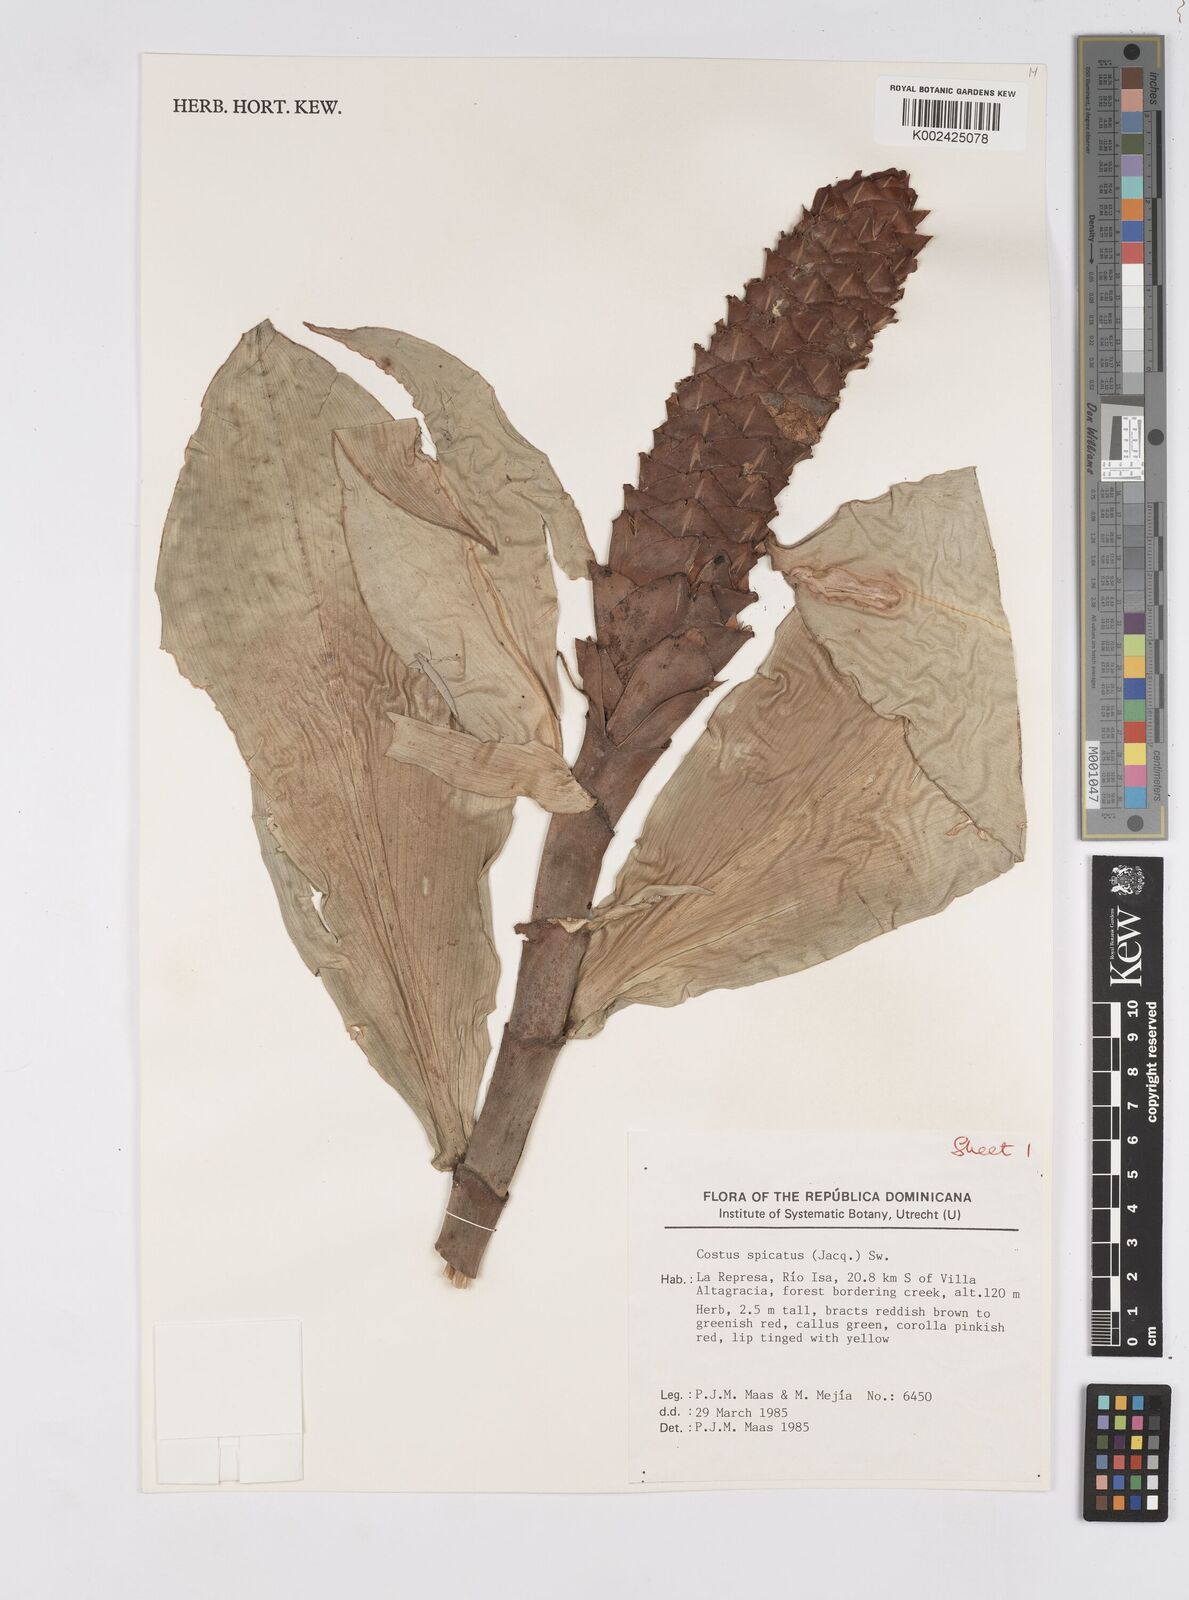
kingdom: Plantae
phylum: Tracheophyta
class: Liliopsida
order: Zingiberales
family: Costaceae
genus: Costus
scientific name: Costus spicatus
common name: Spiked spiral-flag
